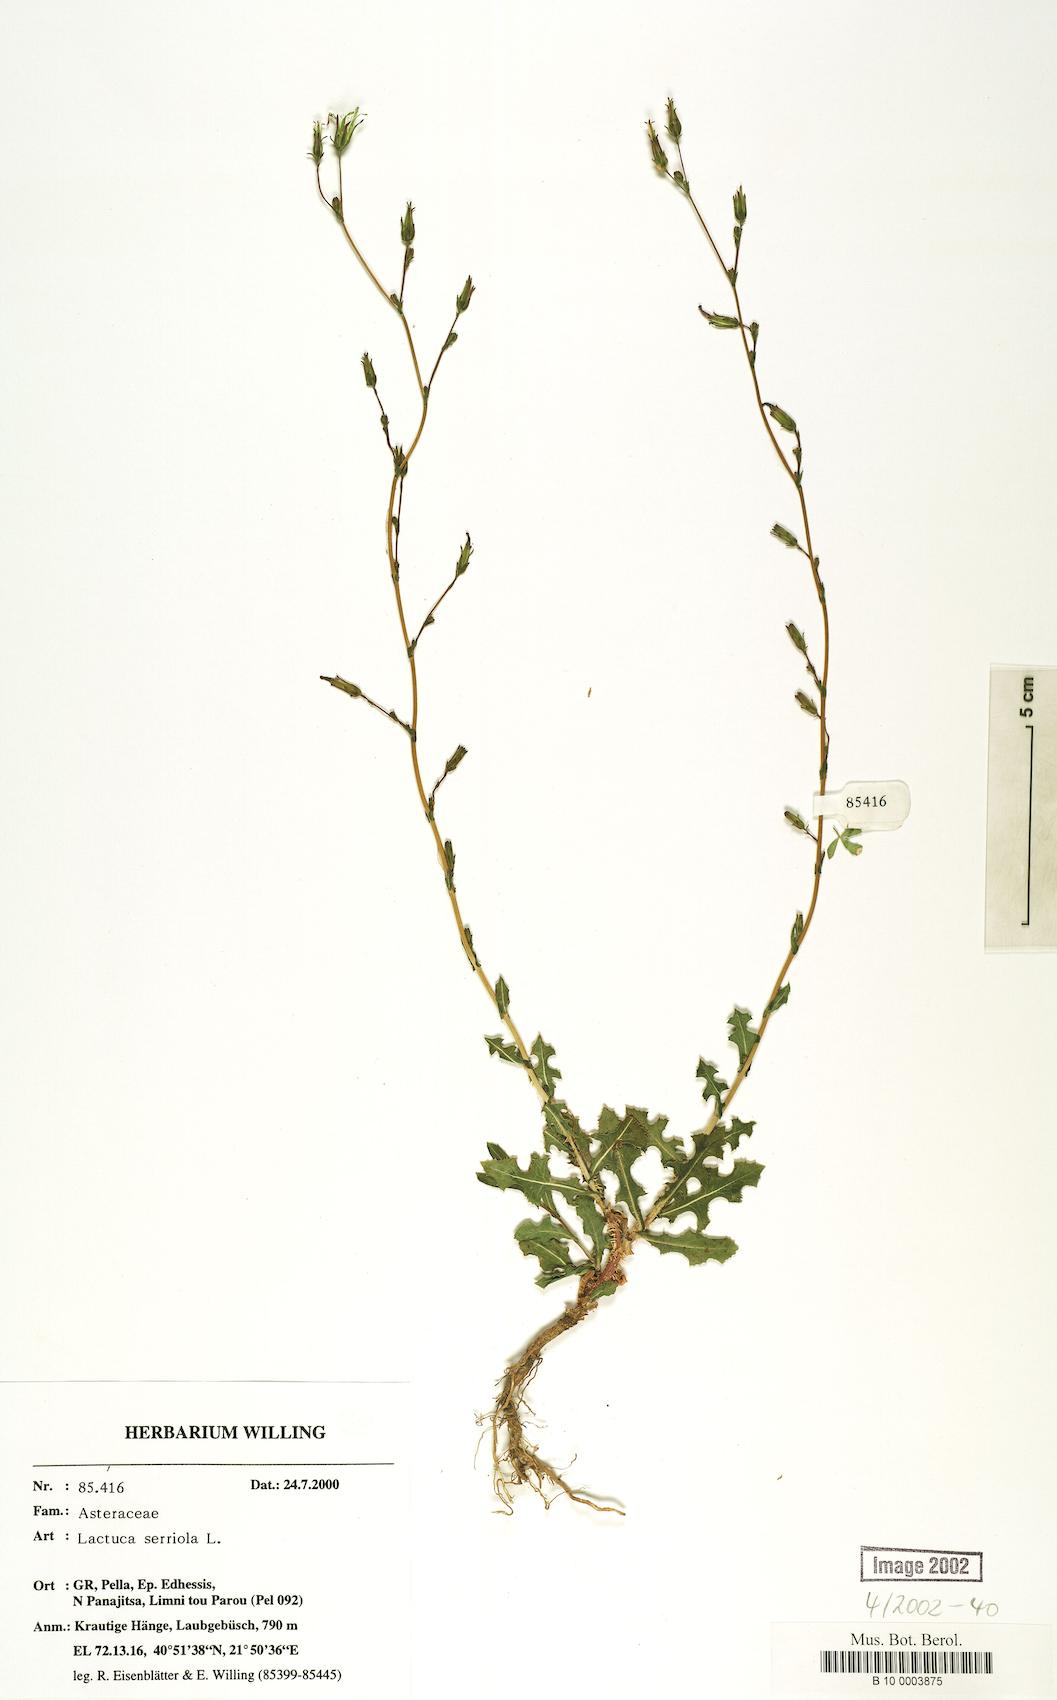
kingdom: Plantae
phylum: Tracheophyta
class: Magnoliopsida
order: Asterales
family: Asteraceae
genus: Lactuca
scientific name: Lactuca serriola
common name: Prickly lettuce
